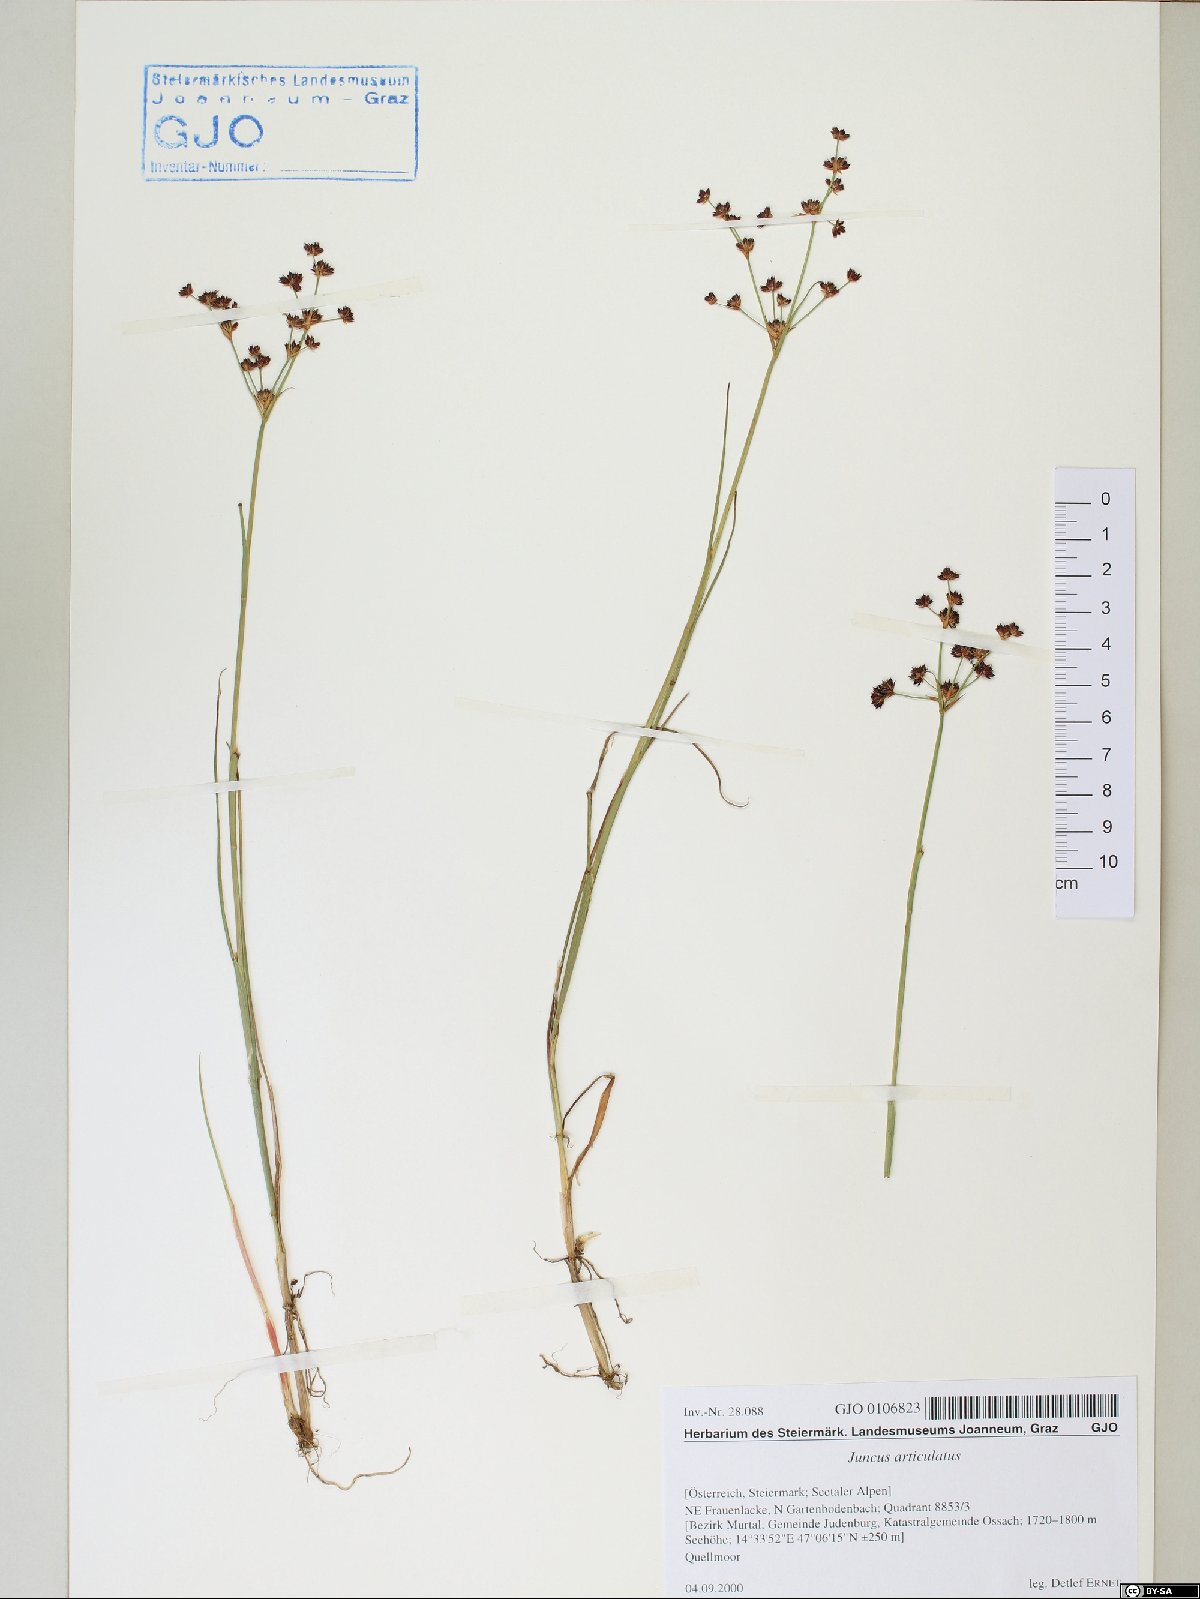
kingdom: Plantae
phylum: Tracheophyta
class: Liliopsida
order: Poales
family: Juncaceae
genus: Juncus
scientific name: Juncus articulatus
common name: Jointed rush
